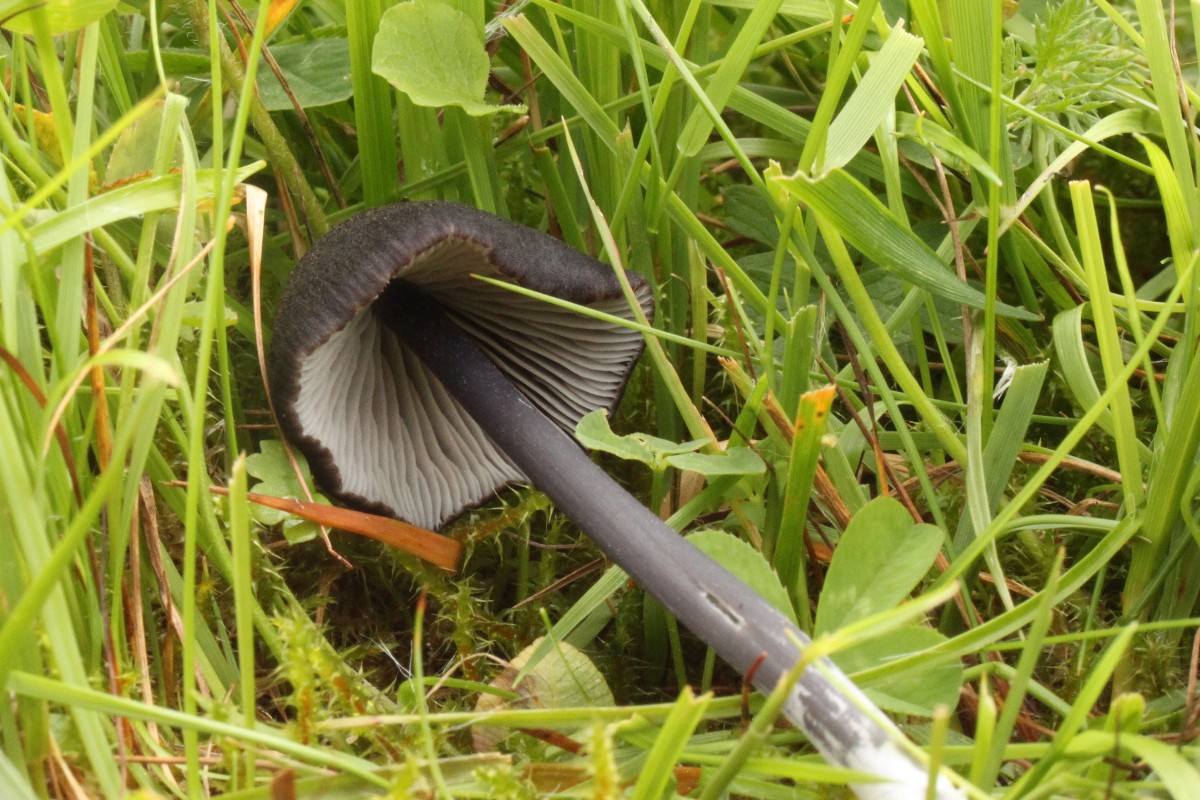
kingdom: Fungi
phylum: Basidiomycota
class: Agaricomycetes
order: Agaricales
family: Entolomataceae
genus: Entoloma
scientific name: Entoloma chalybeum
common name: blåbladet rødblad
